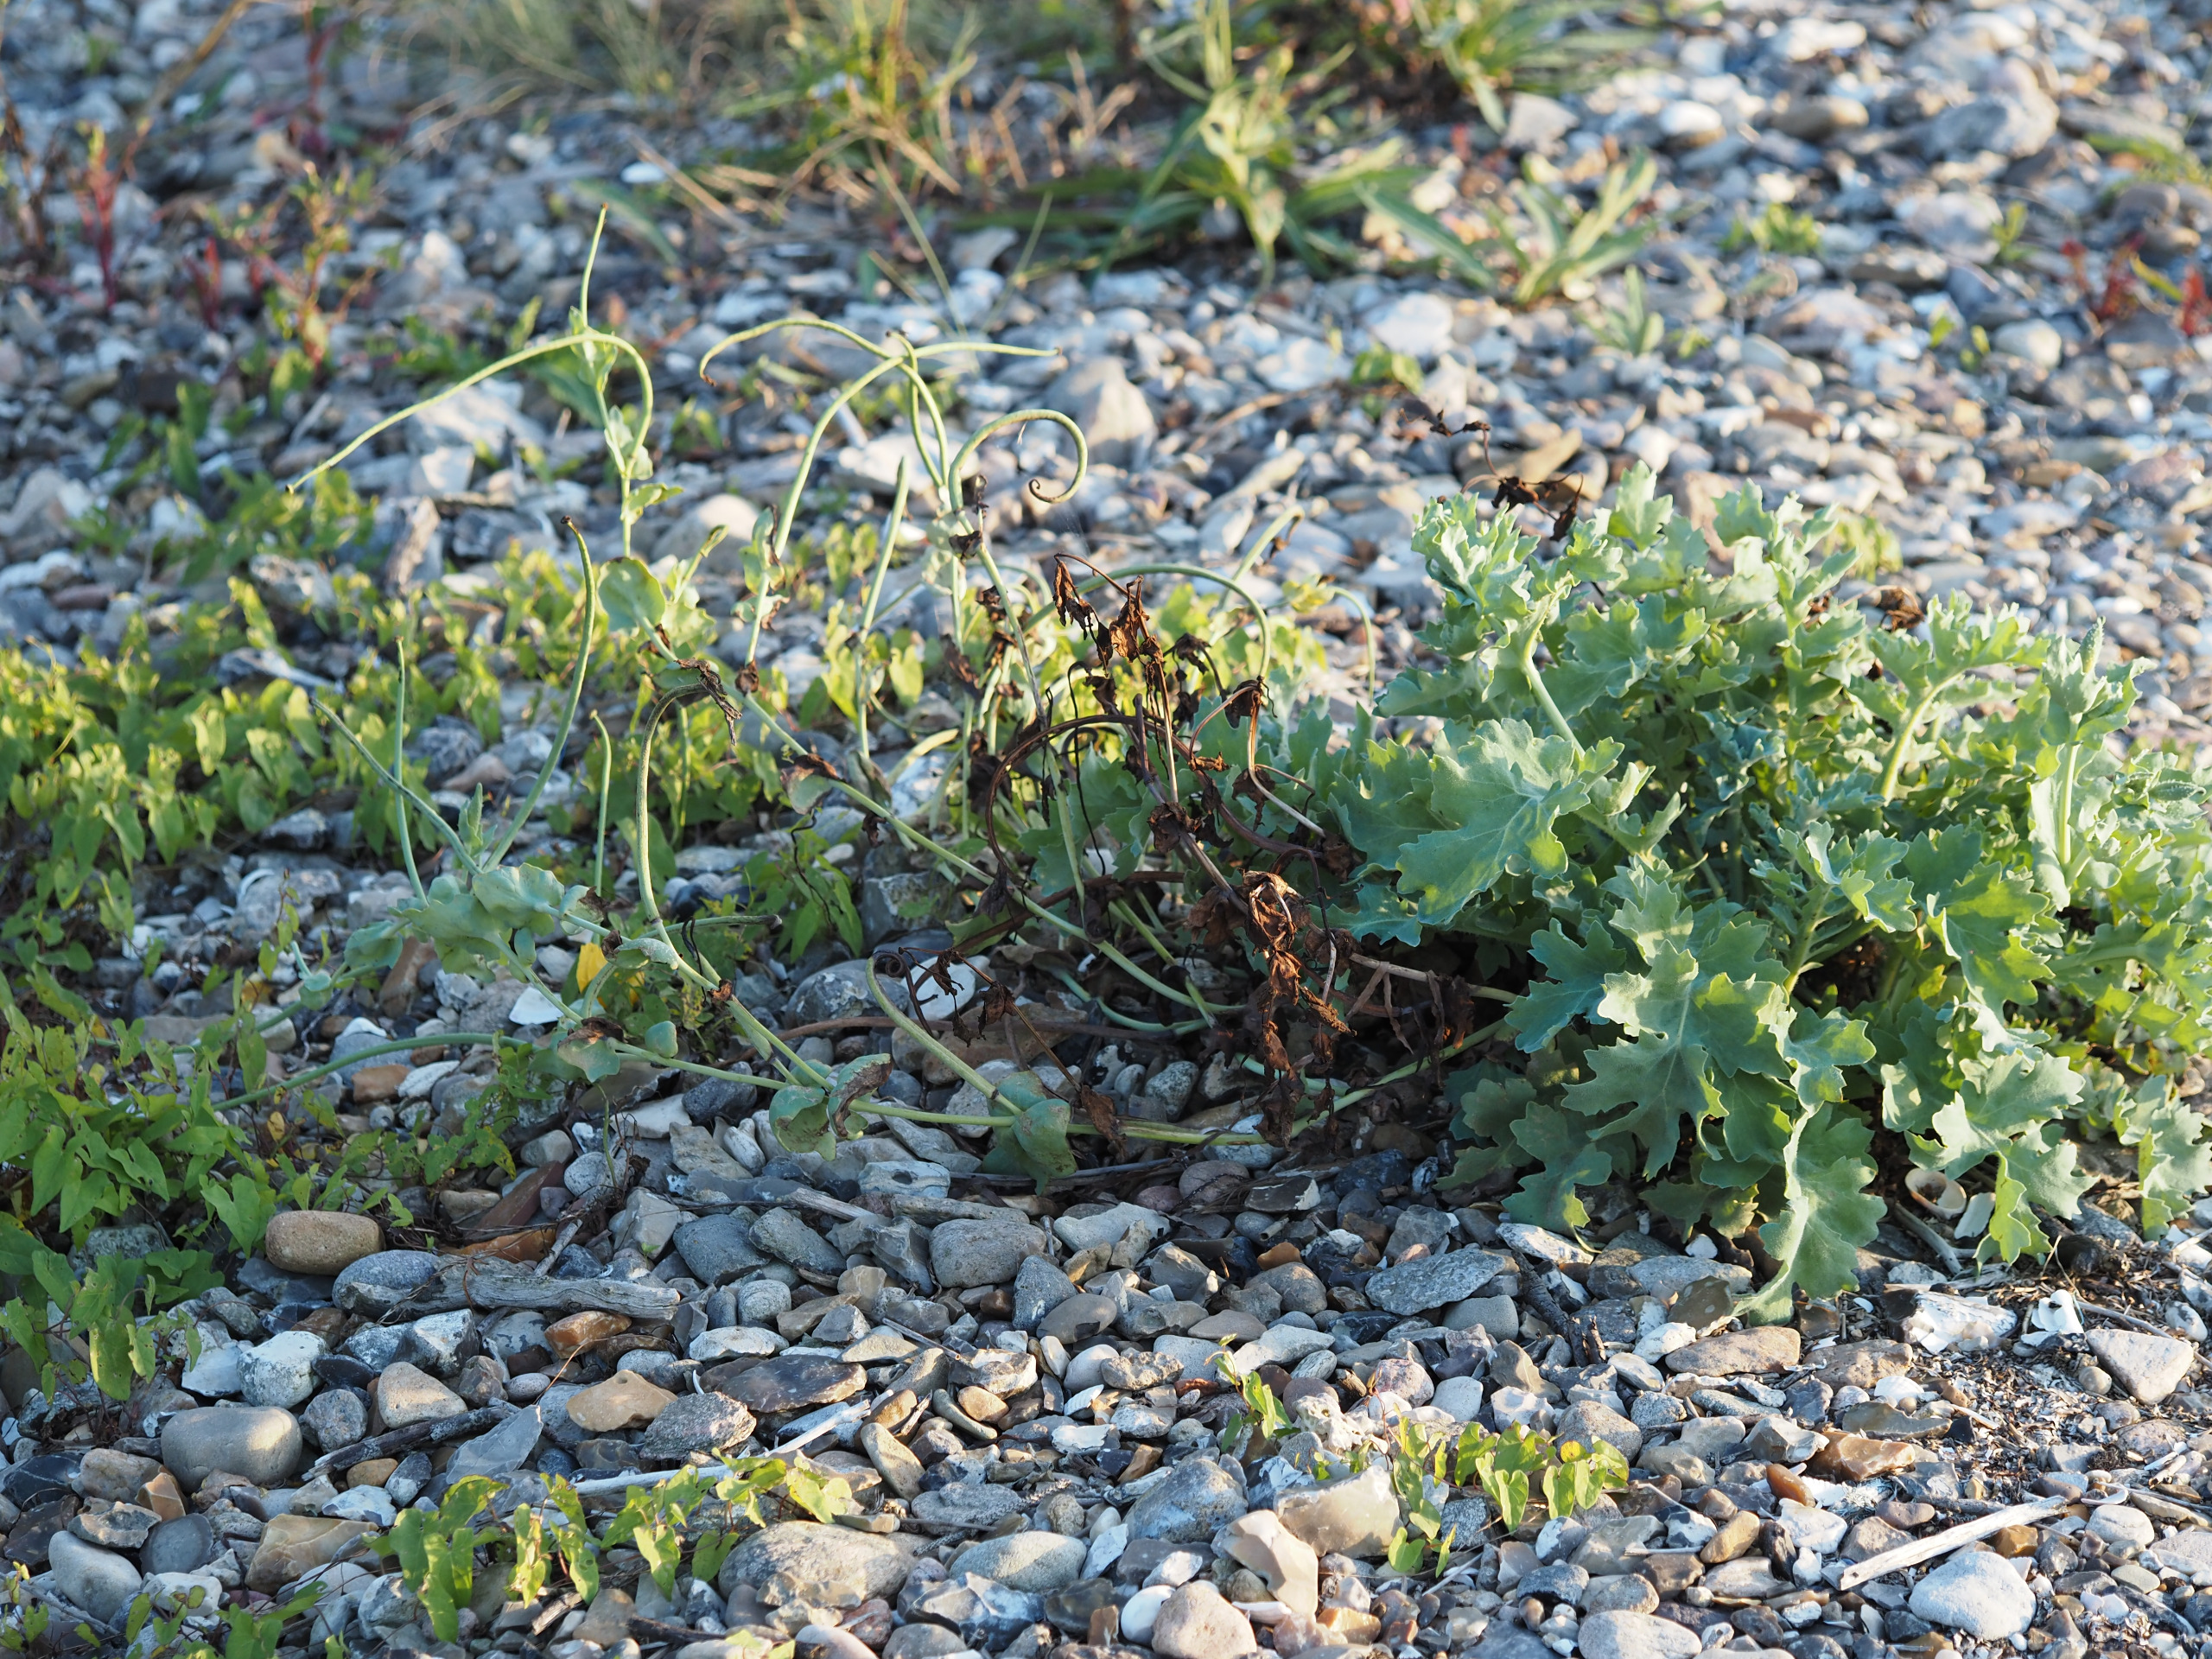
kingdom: Plantae
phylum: Tracheophyta
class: Magnoliopsida
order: Ranunculales
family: Papaveraceae
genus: Glaucium
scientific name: Glaucium flavum
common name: Hornskulpe
